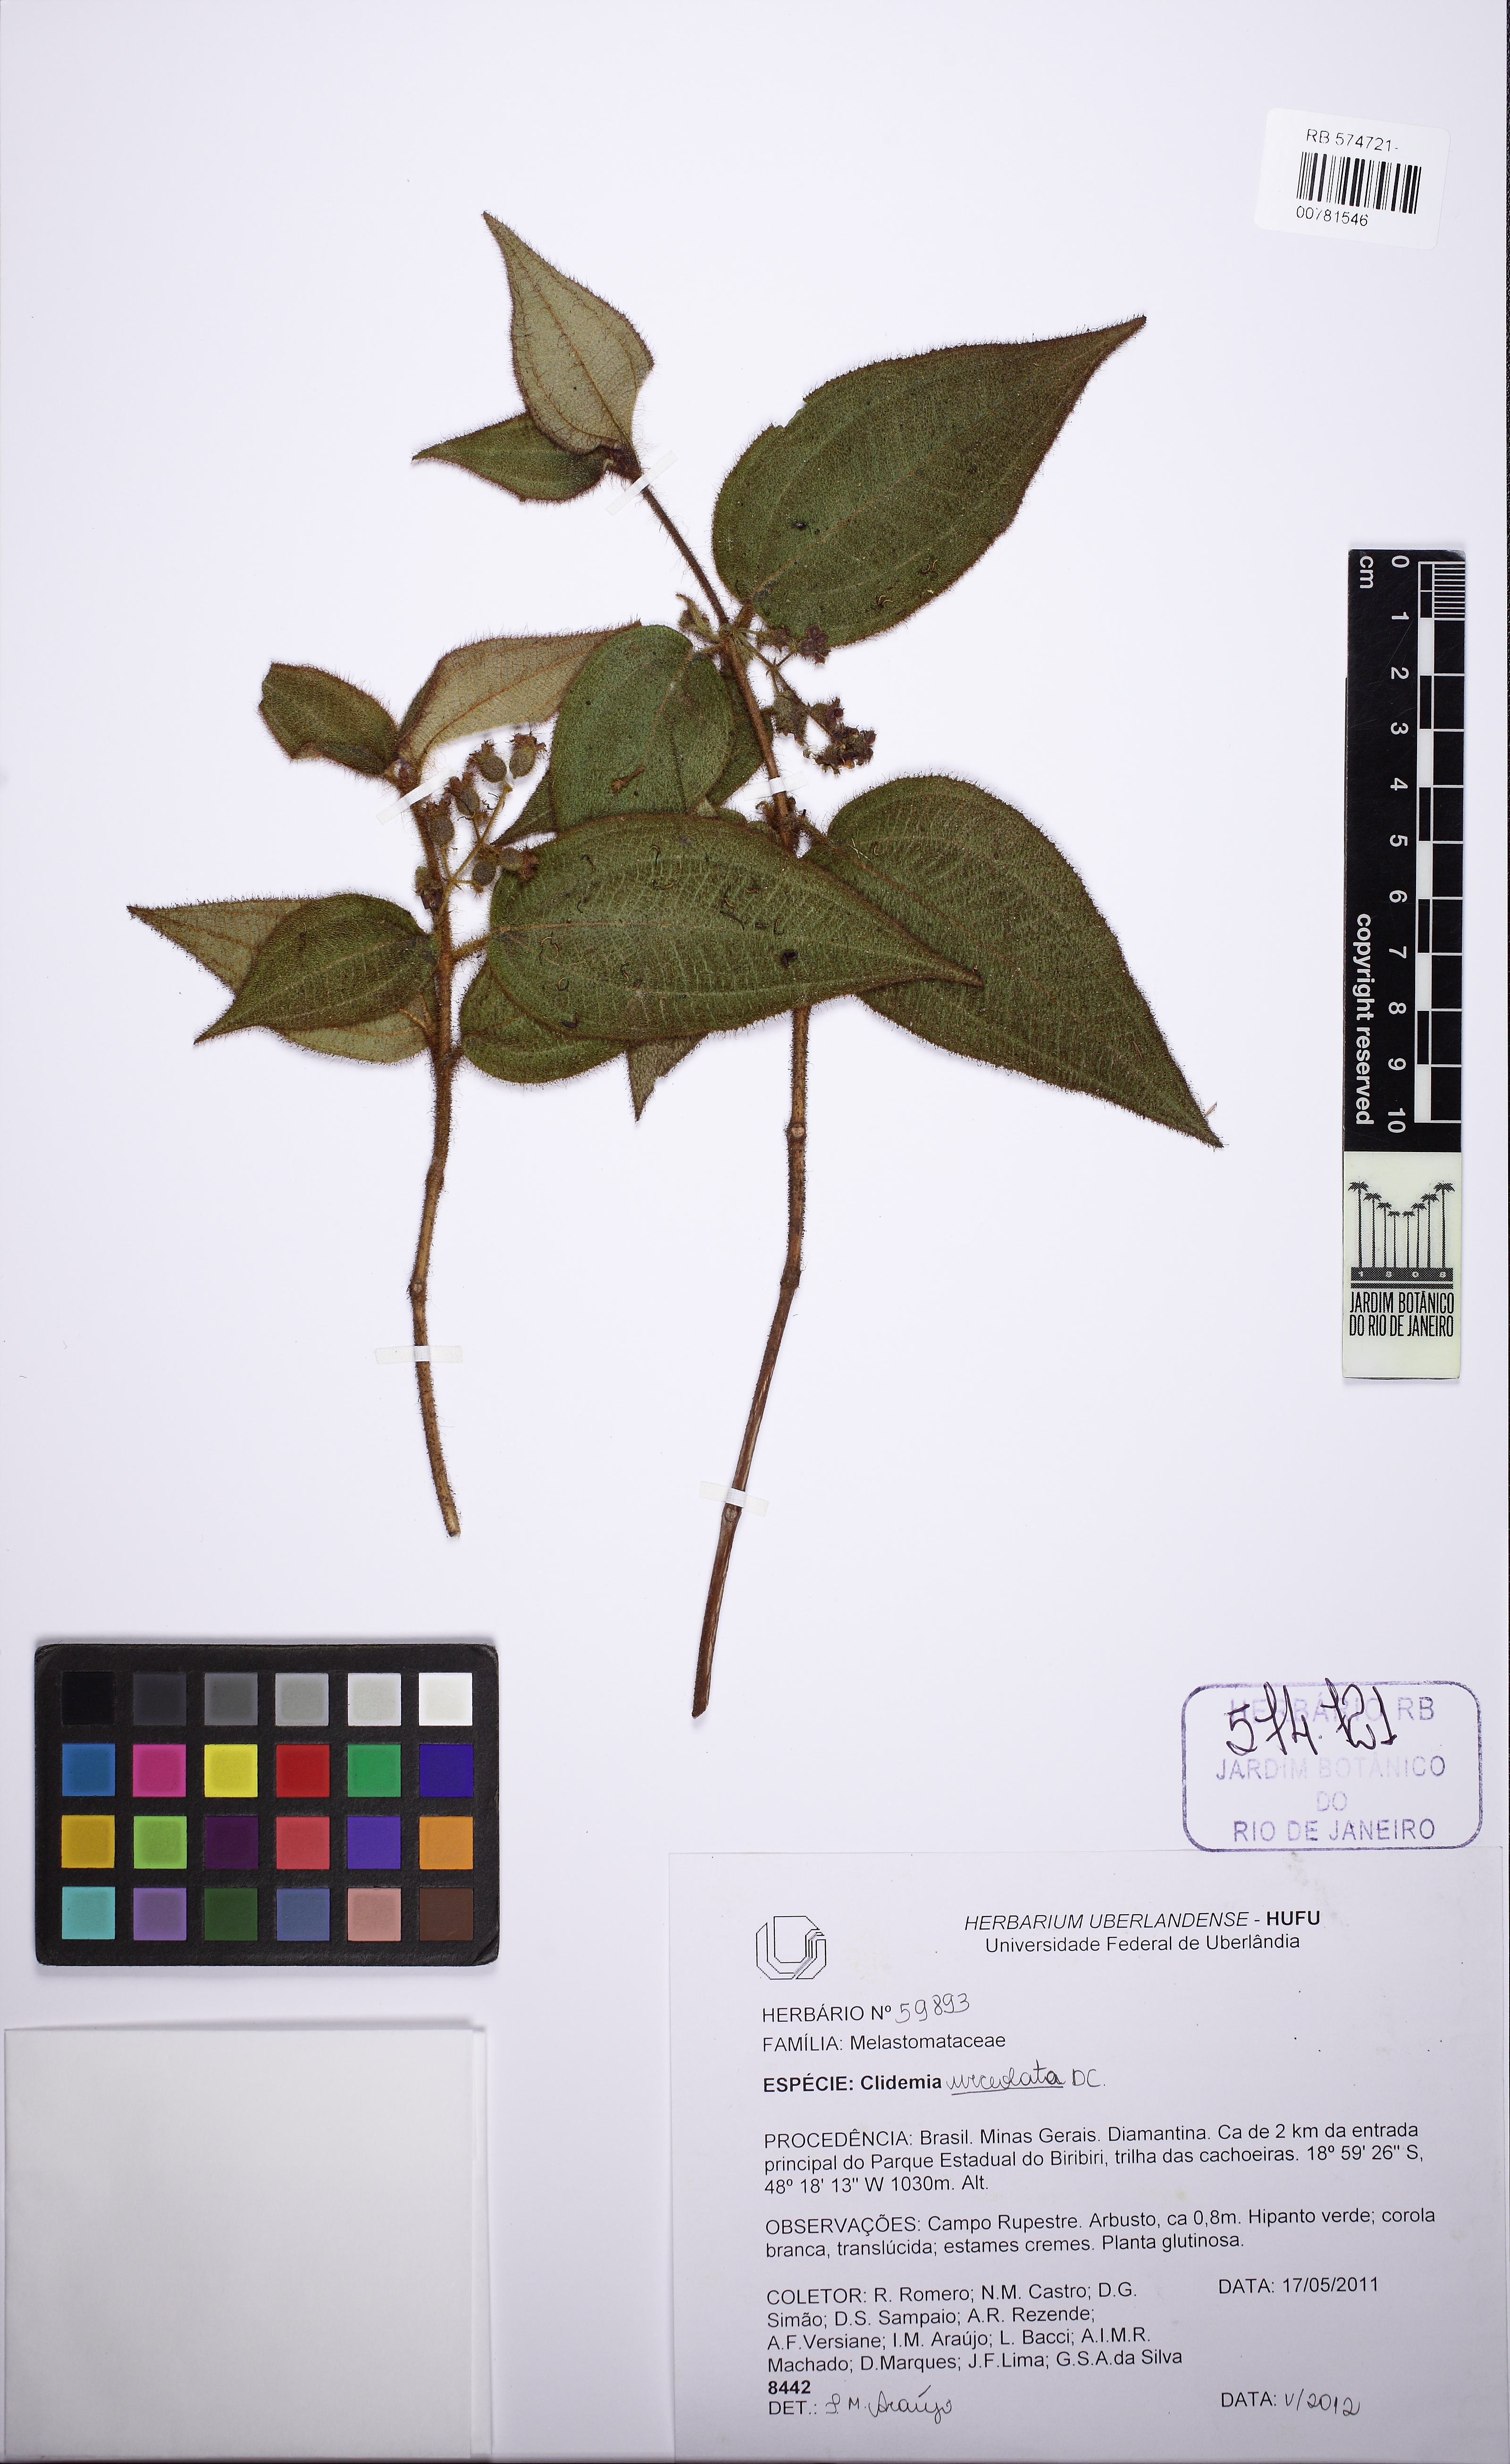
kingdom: Plantae
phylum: Tracheophyta
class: Magnoliopsida
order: Myrtales
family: Melastomataceae
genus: Miconia
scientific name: Miconia neourceolata
